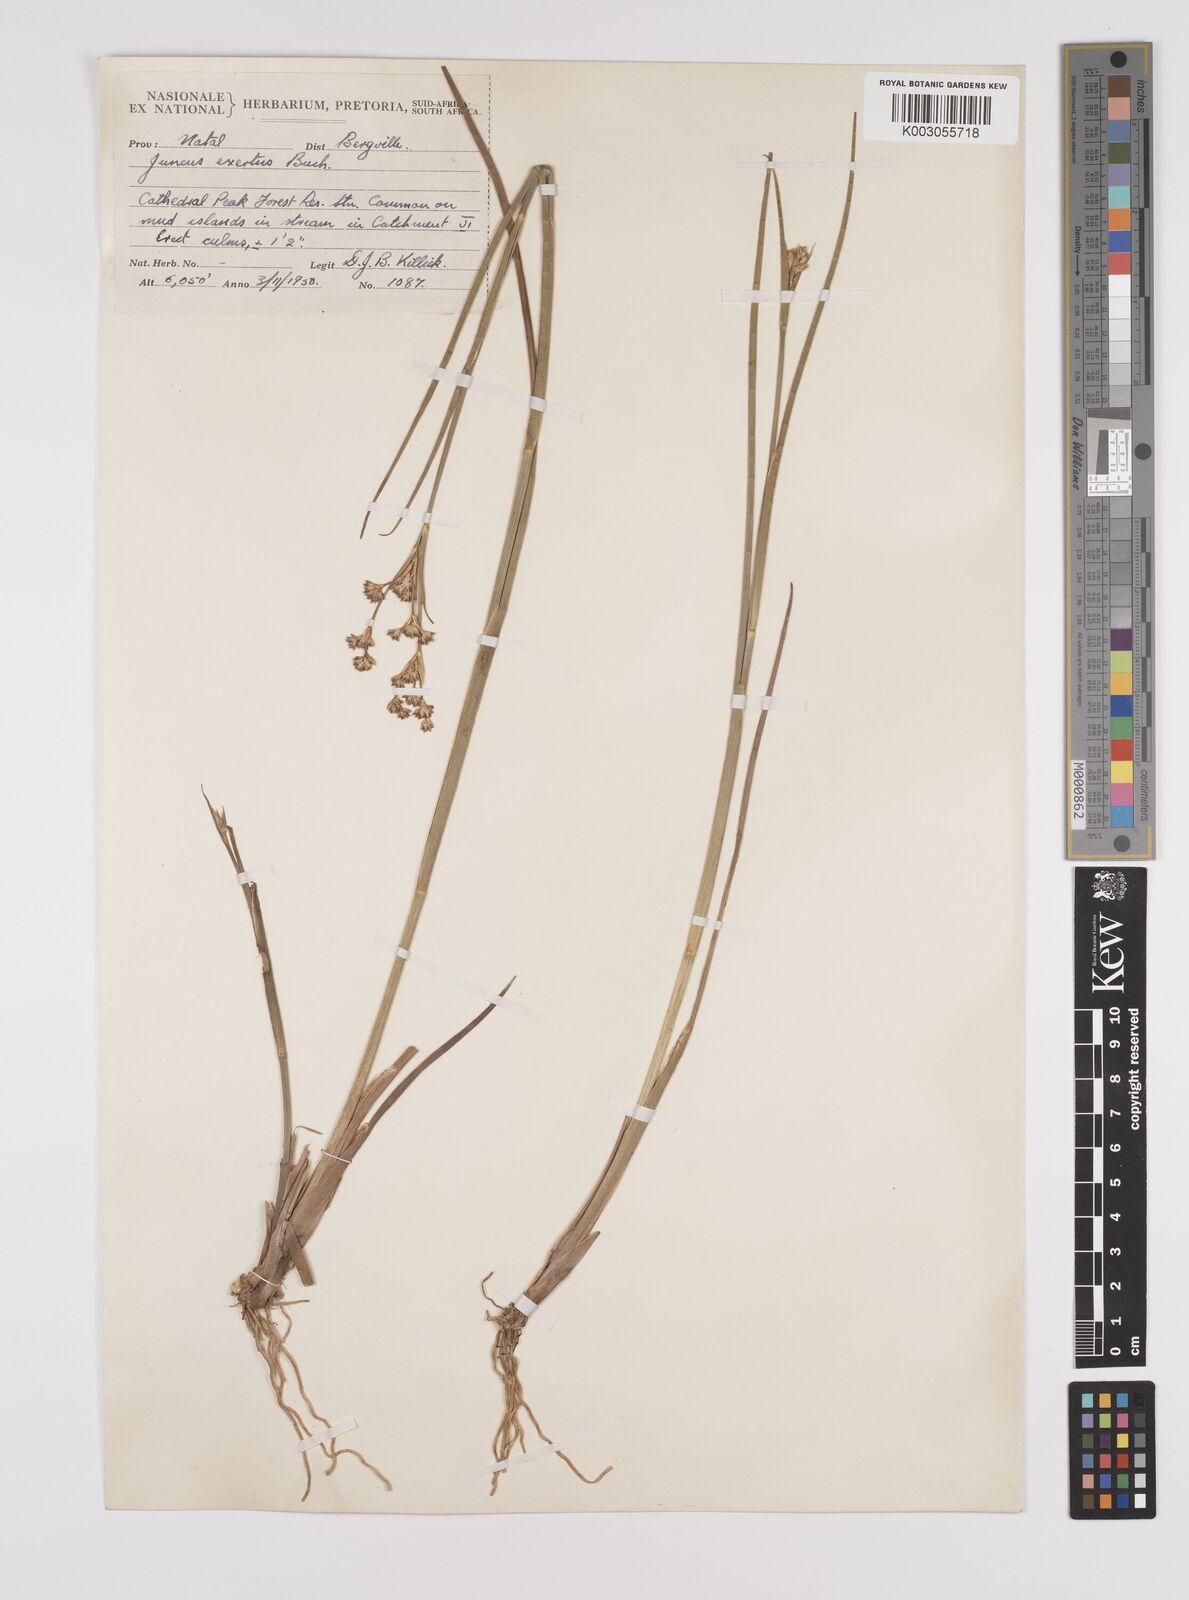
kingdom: Plantae
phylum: Tracheophyta
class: Liliopsida
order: Poales
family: Juncaceae
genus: Juncus
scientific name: Juncus exsertus
